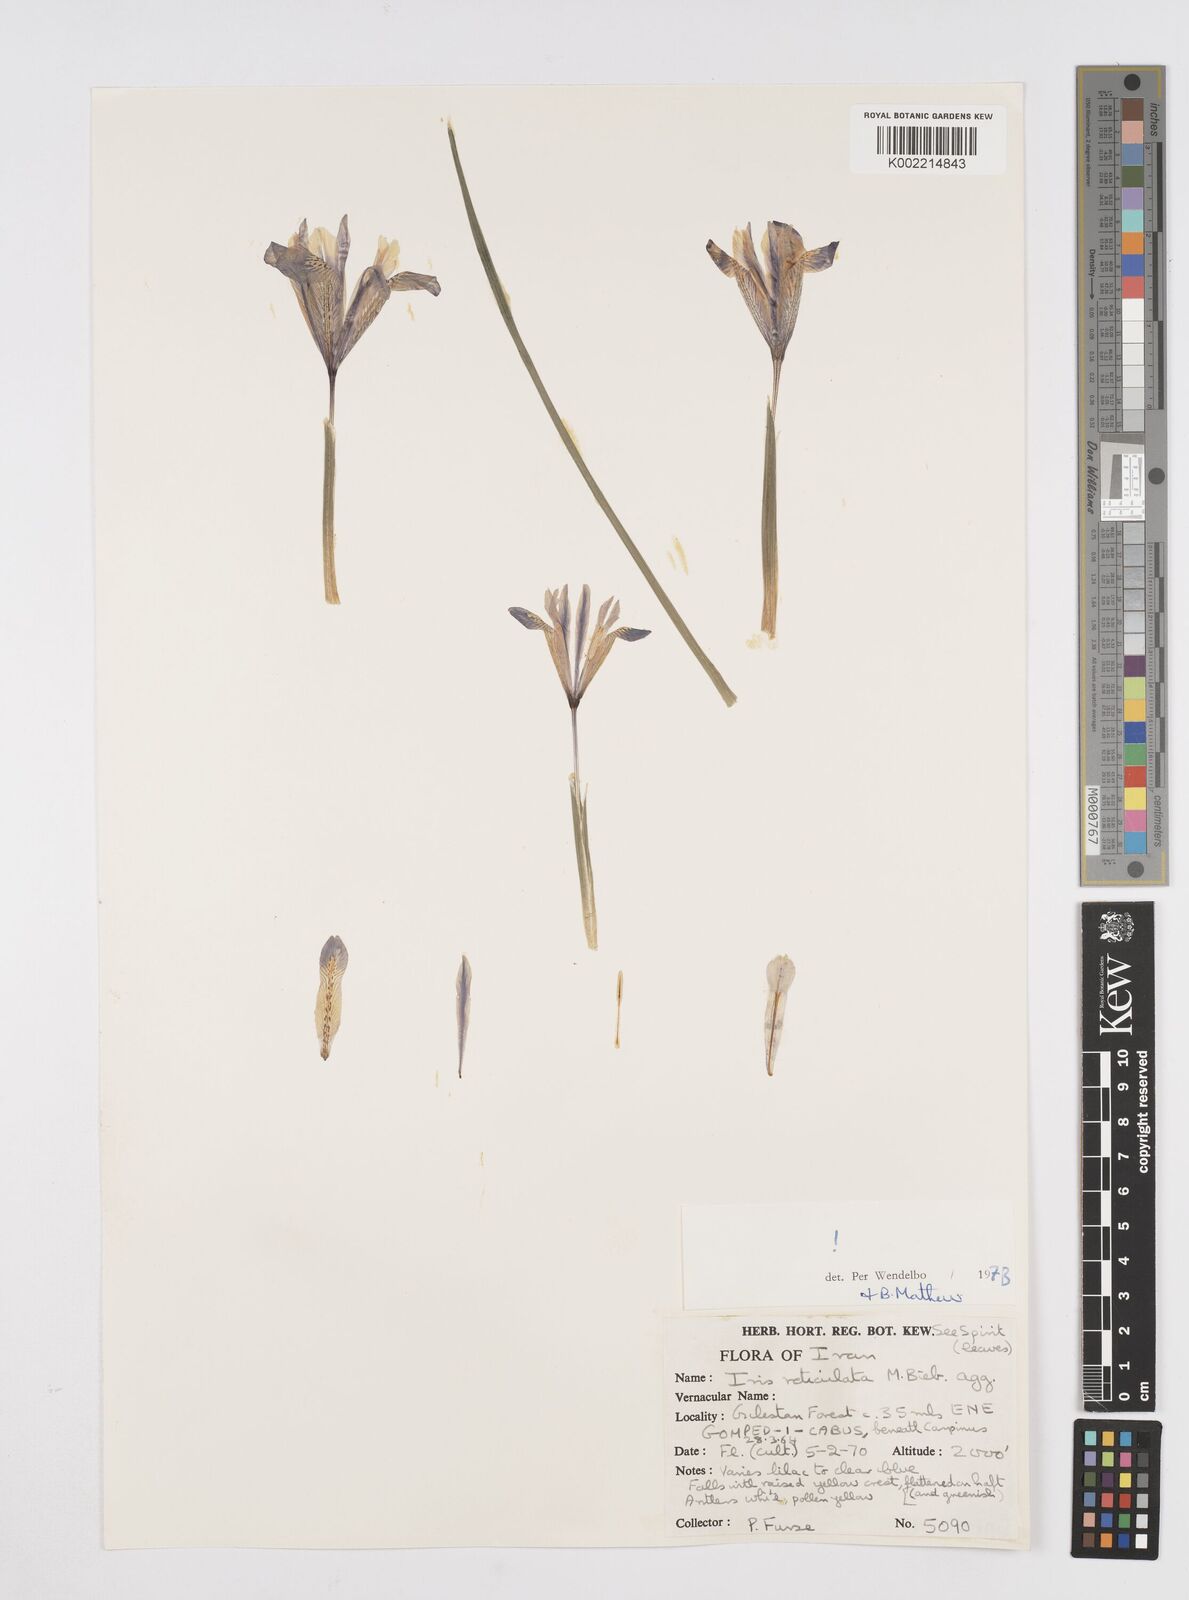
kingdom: Plantae
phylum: Tracheophyta
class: Liliopsida
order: Asparagales
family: Iridaceae
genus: Iris
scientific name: Iris reticulata
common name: Netted iris
